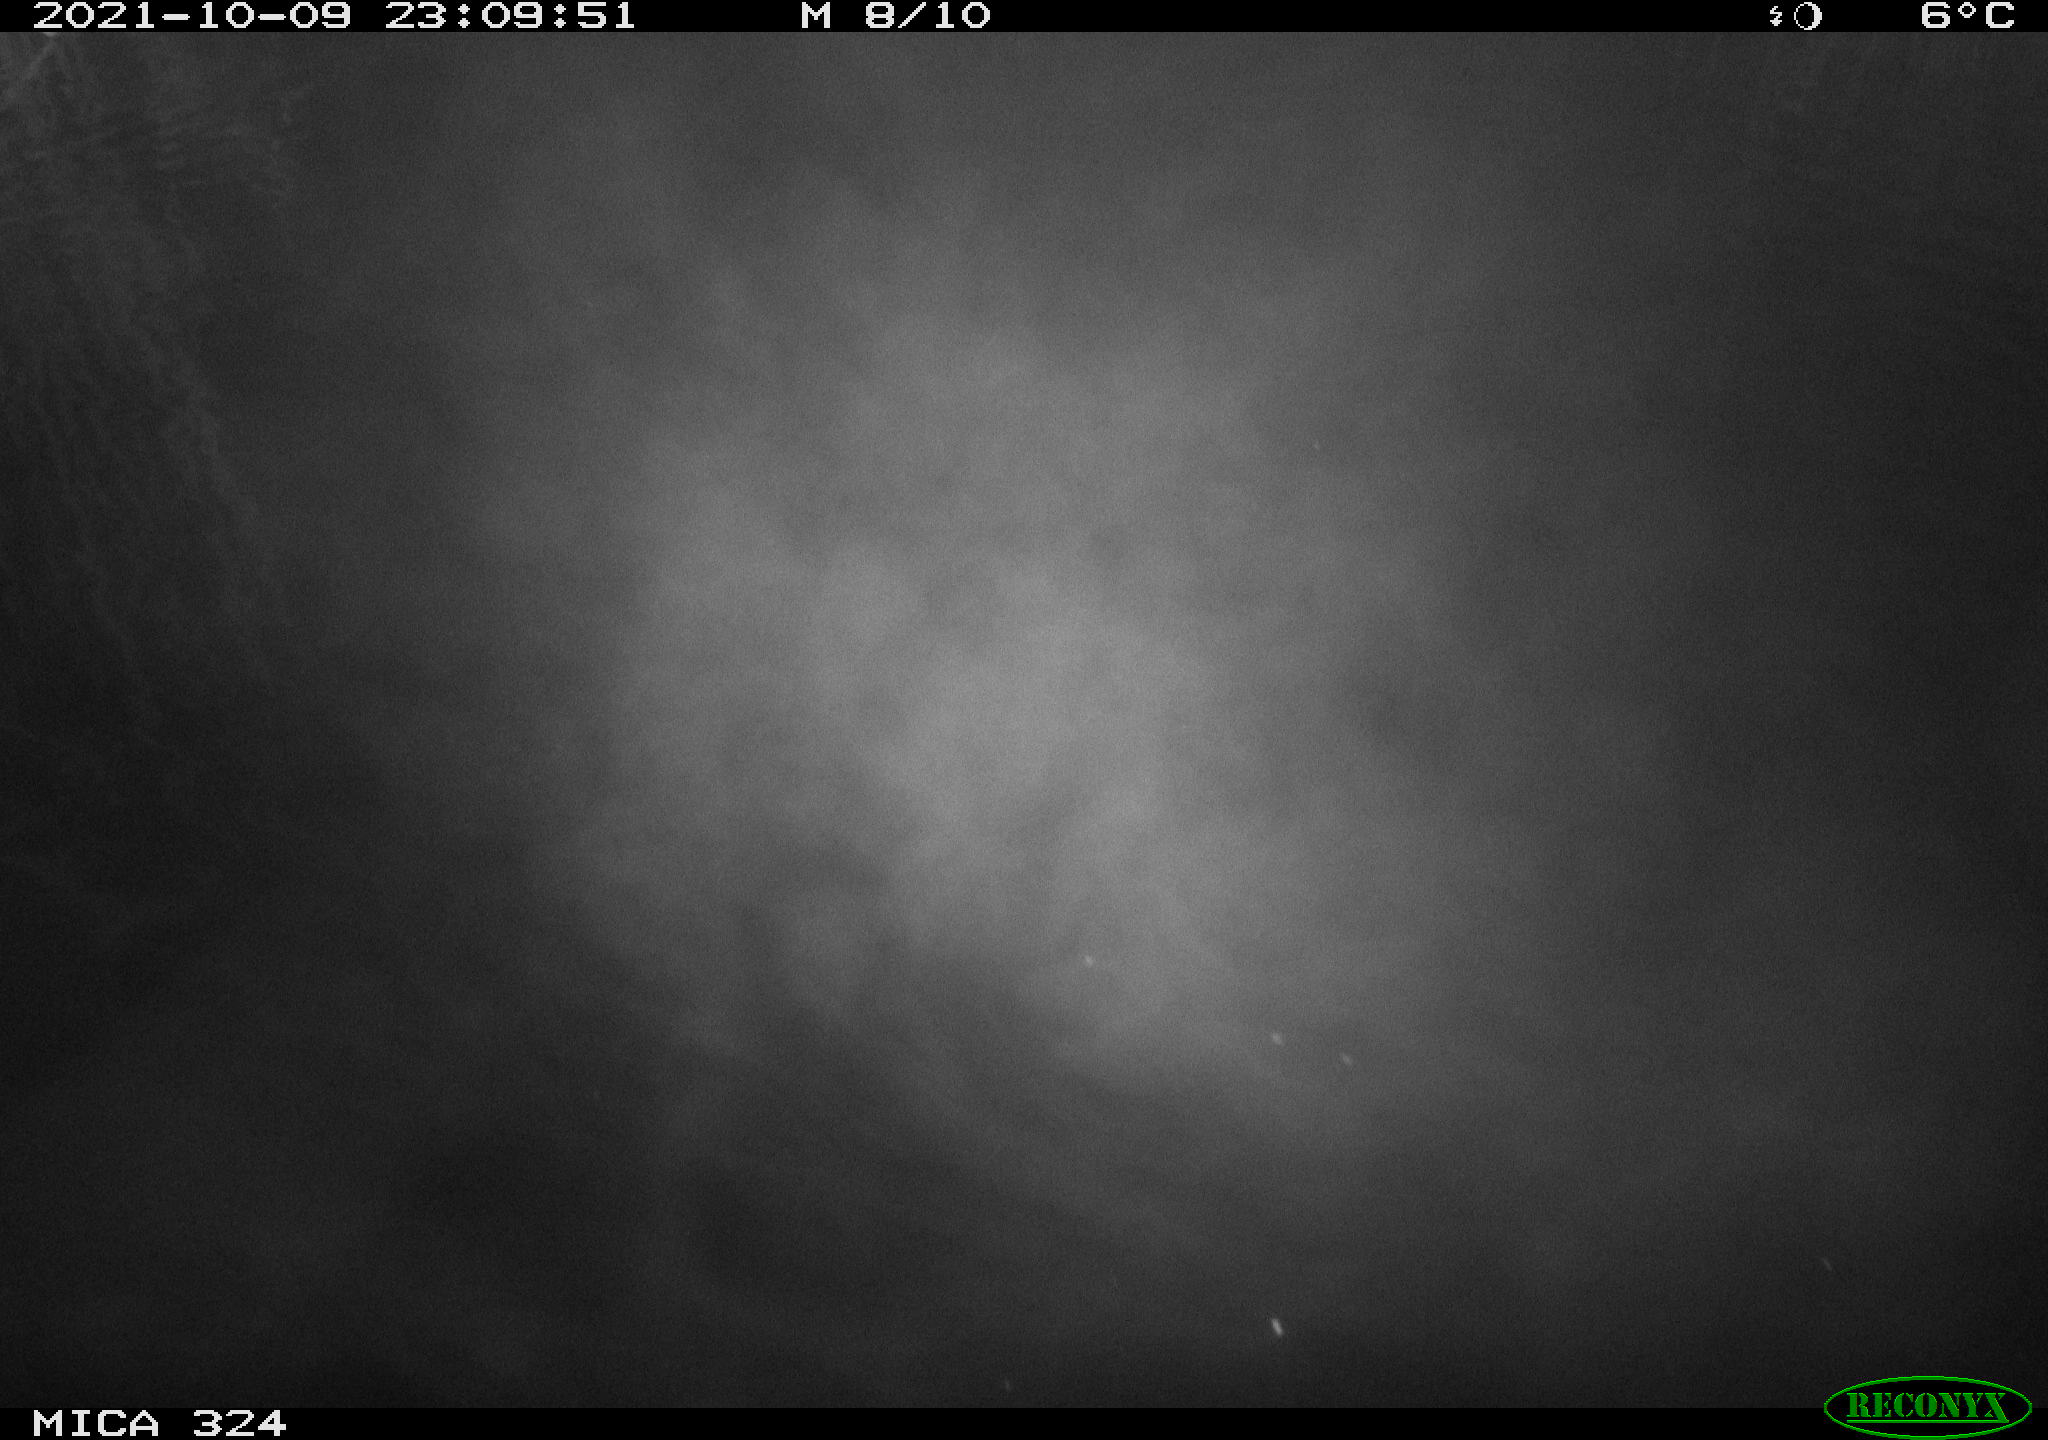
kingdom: Animalia
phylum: Chordata
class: Mammalia
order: Rodentia
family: Cricetidae
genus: Ondatra
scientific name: Ondatra zibethicus
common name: Muskrat
